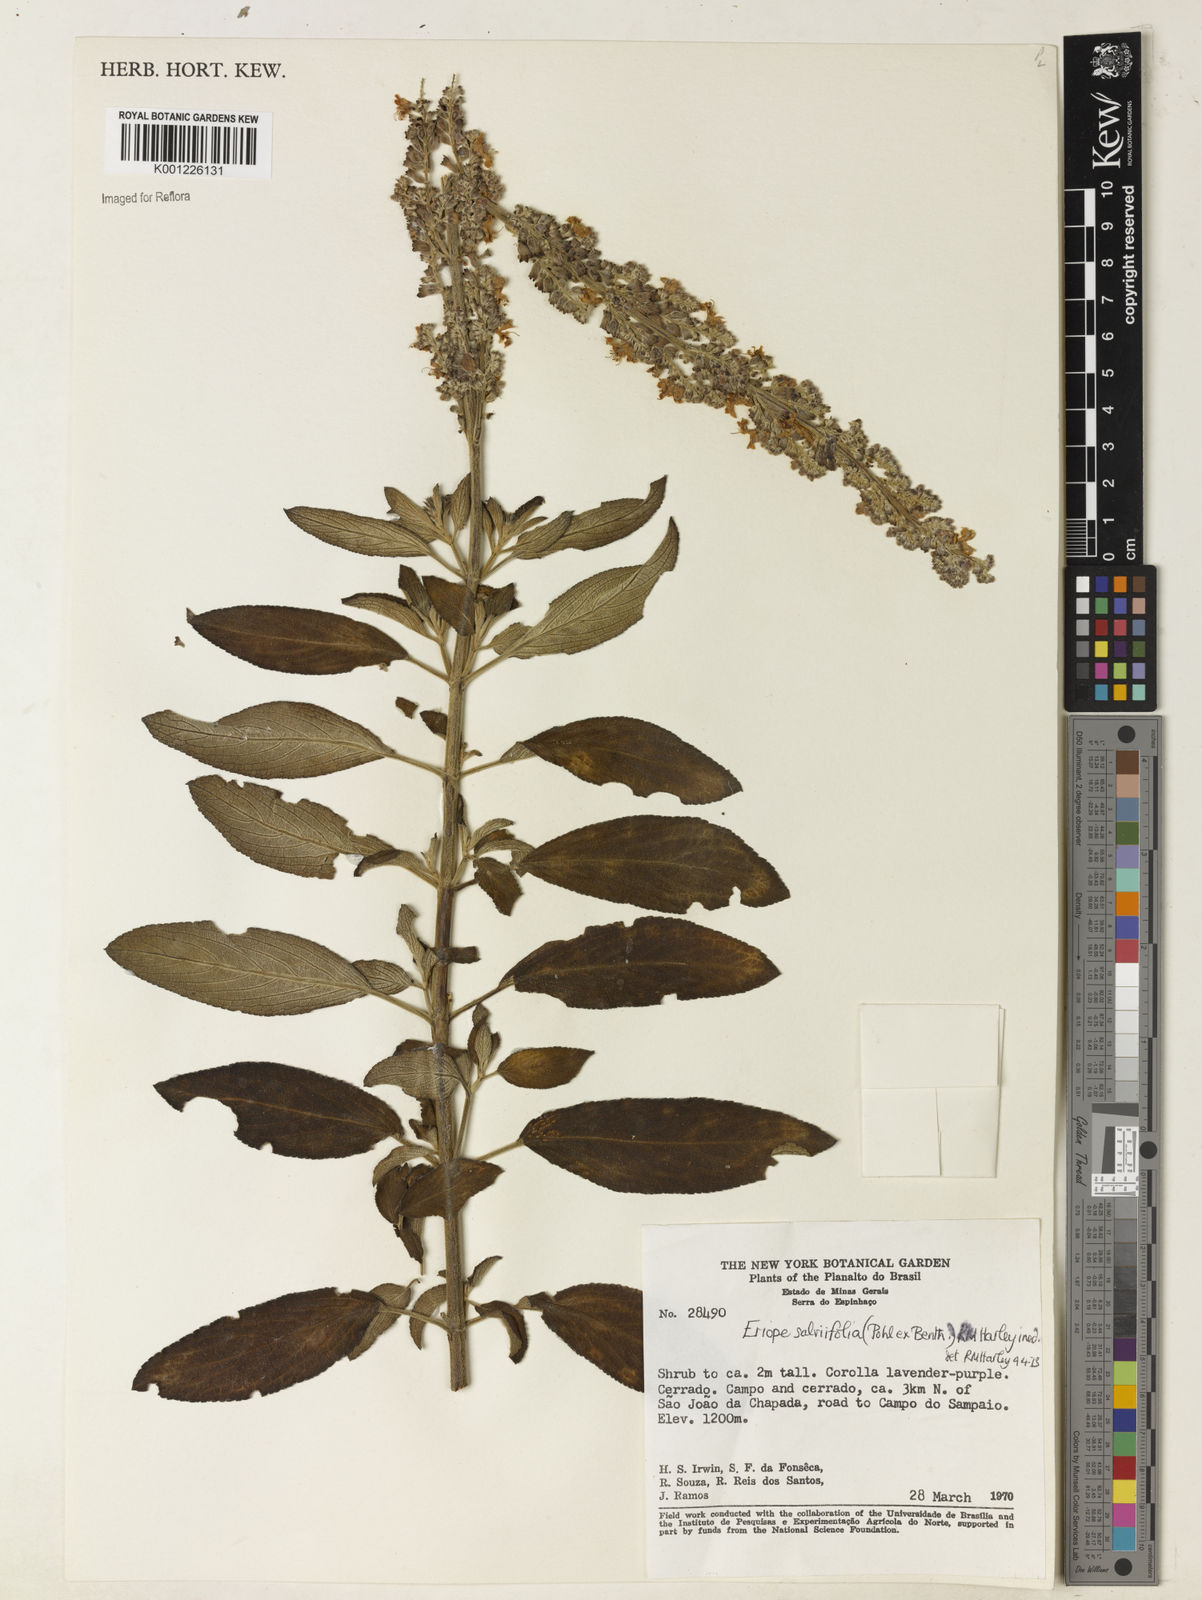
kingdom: Plantae
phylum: Tracheophyta
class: Magnoliopsida
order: Lamiales
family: Lamiaceae
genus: Eriope
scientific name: Eriope salviifolia
